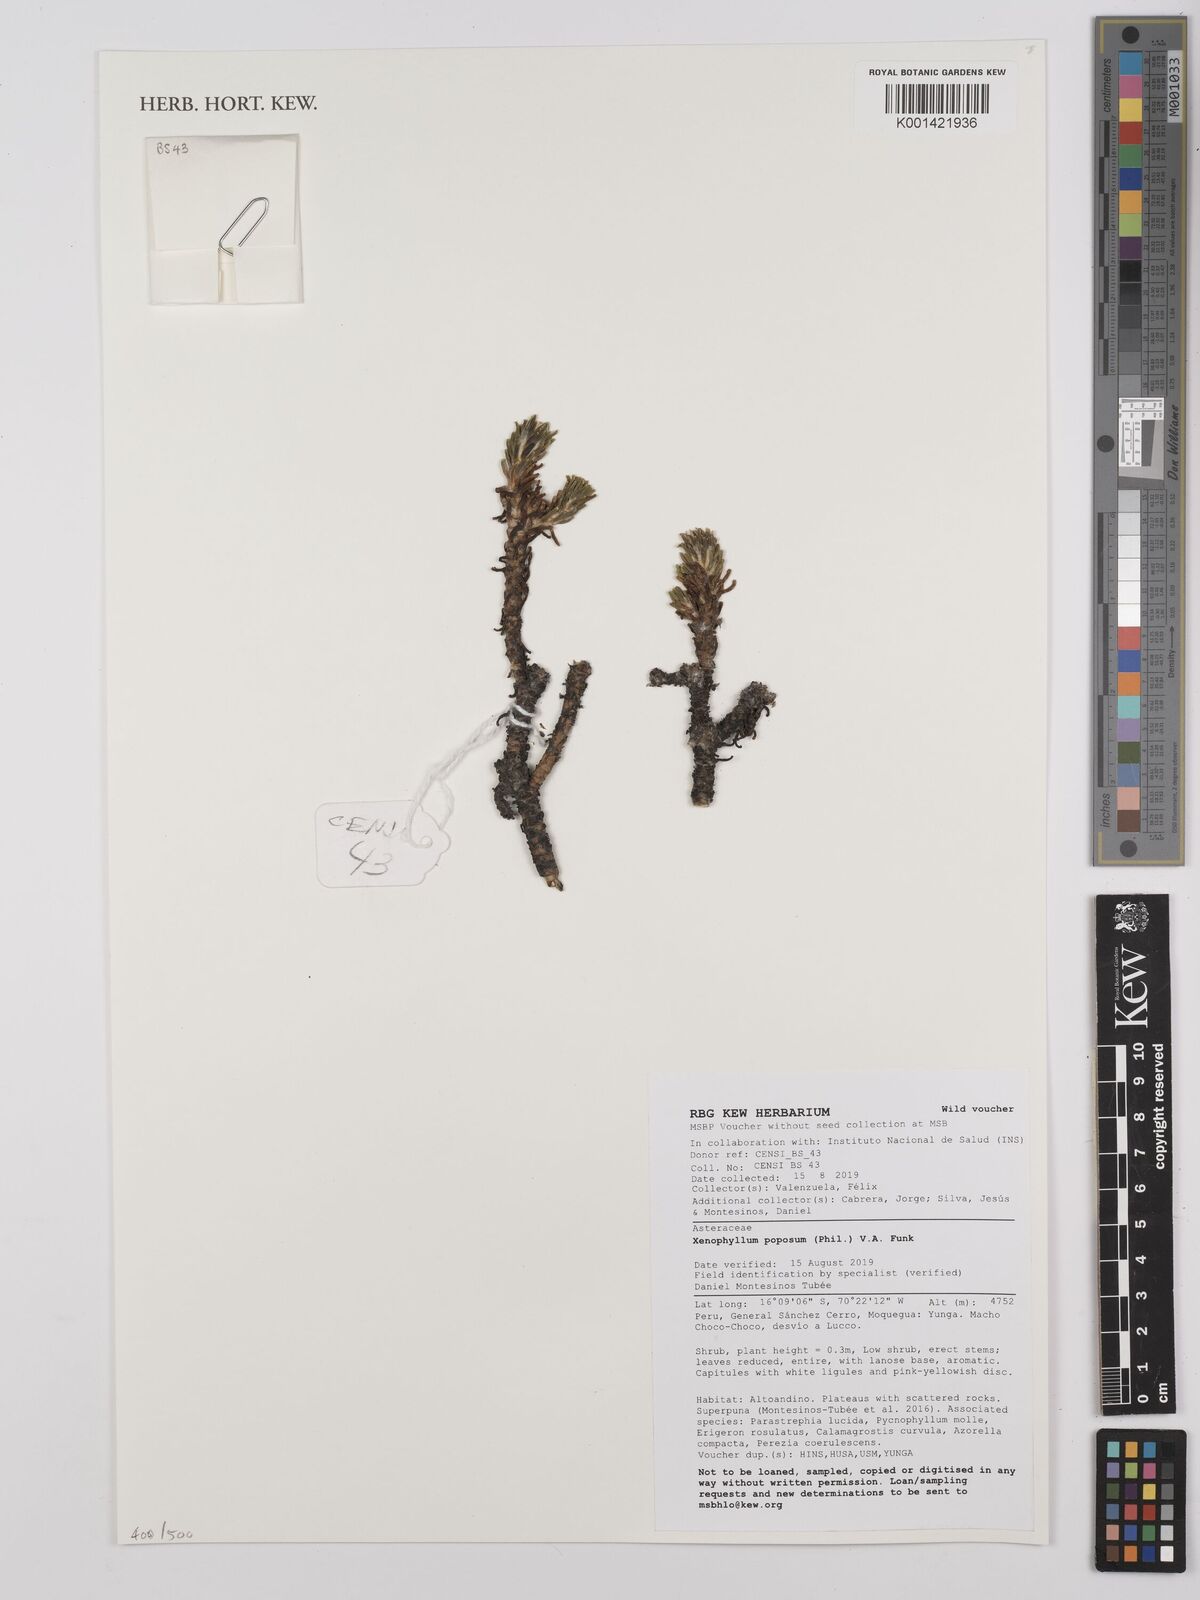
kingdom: Plantae
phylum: Tracheophyta
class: Magnoliopsida
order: Asterales
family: Asteraceae
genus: Werneria
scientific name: Werneria poposa
